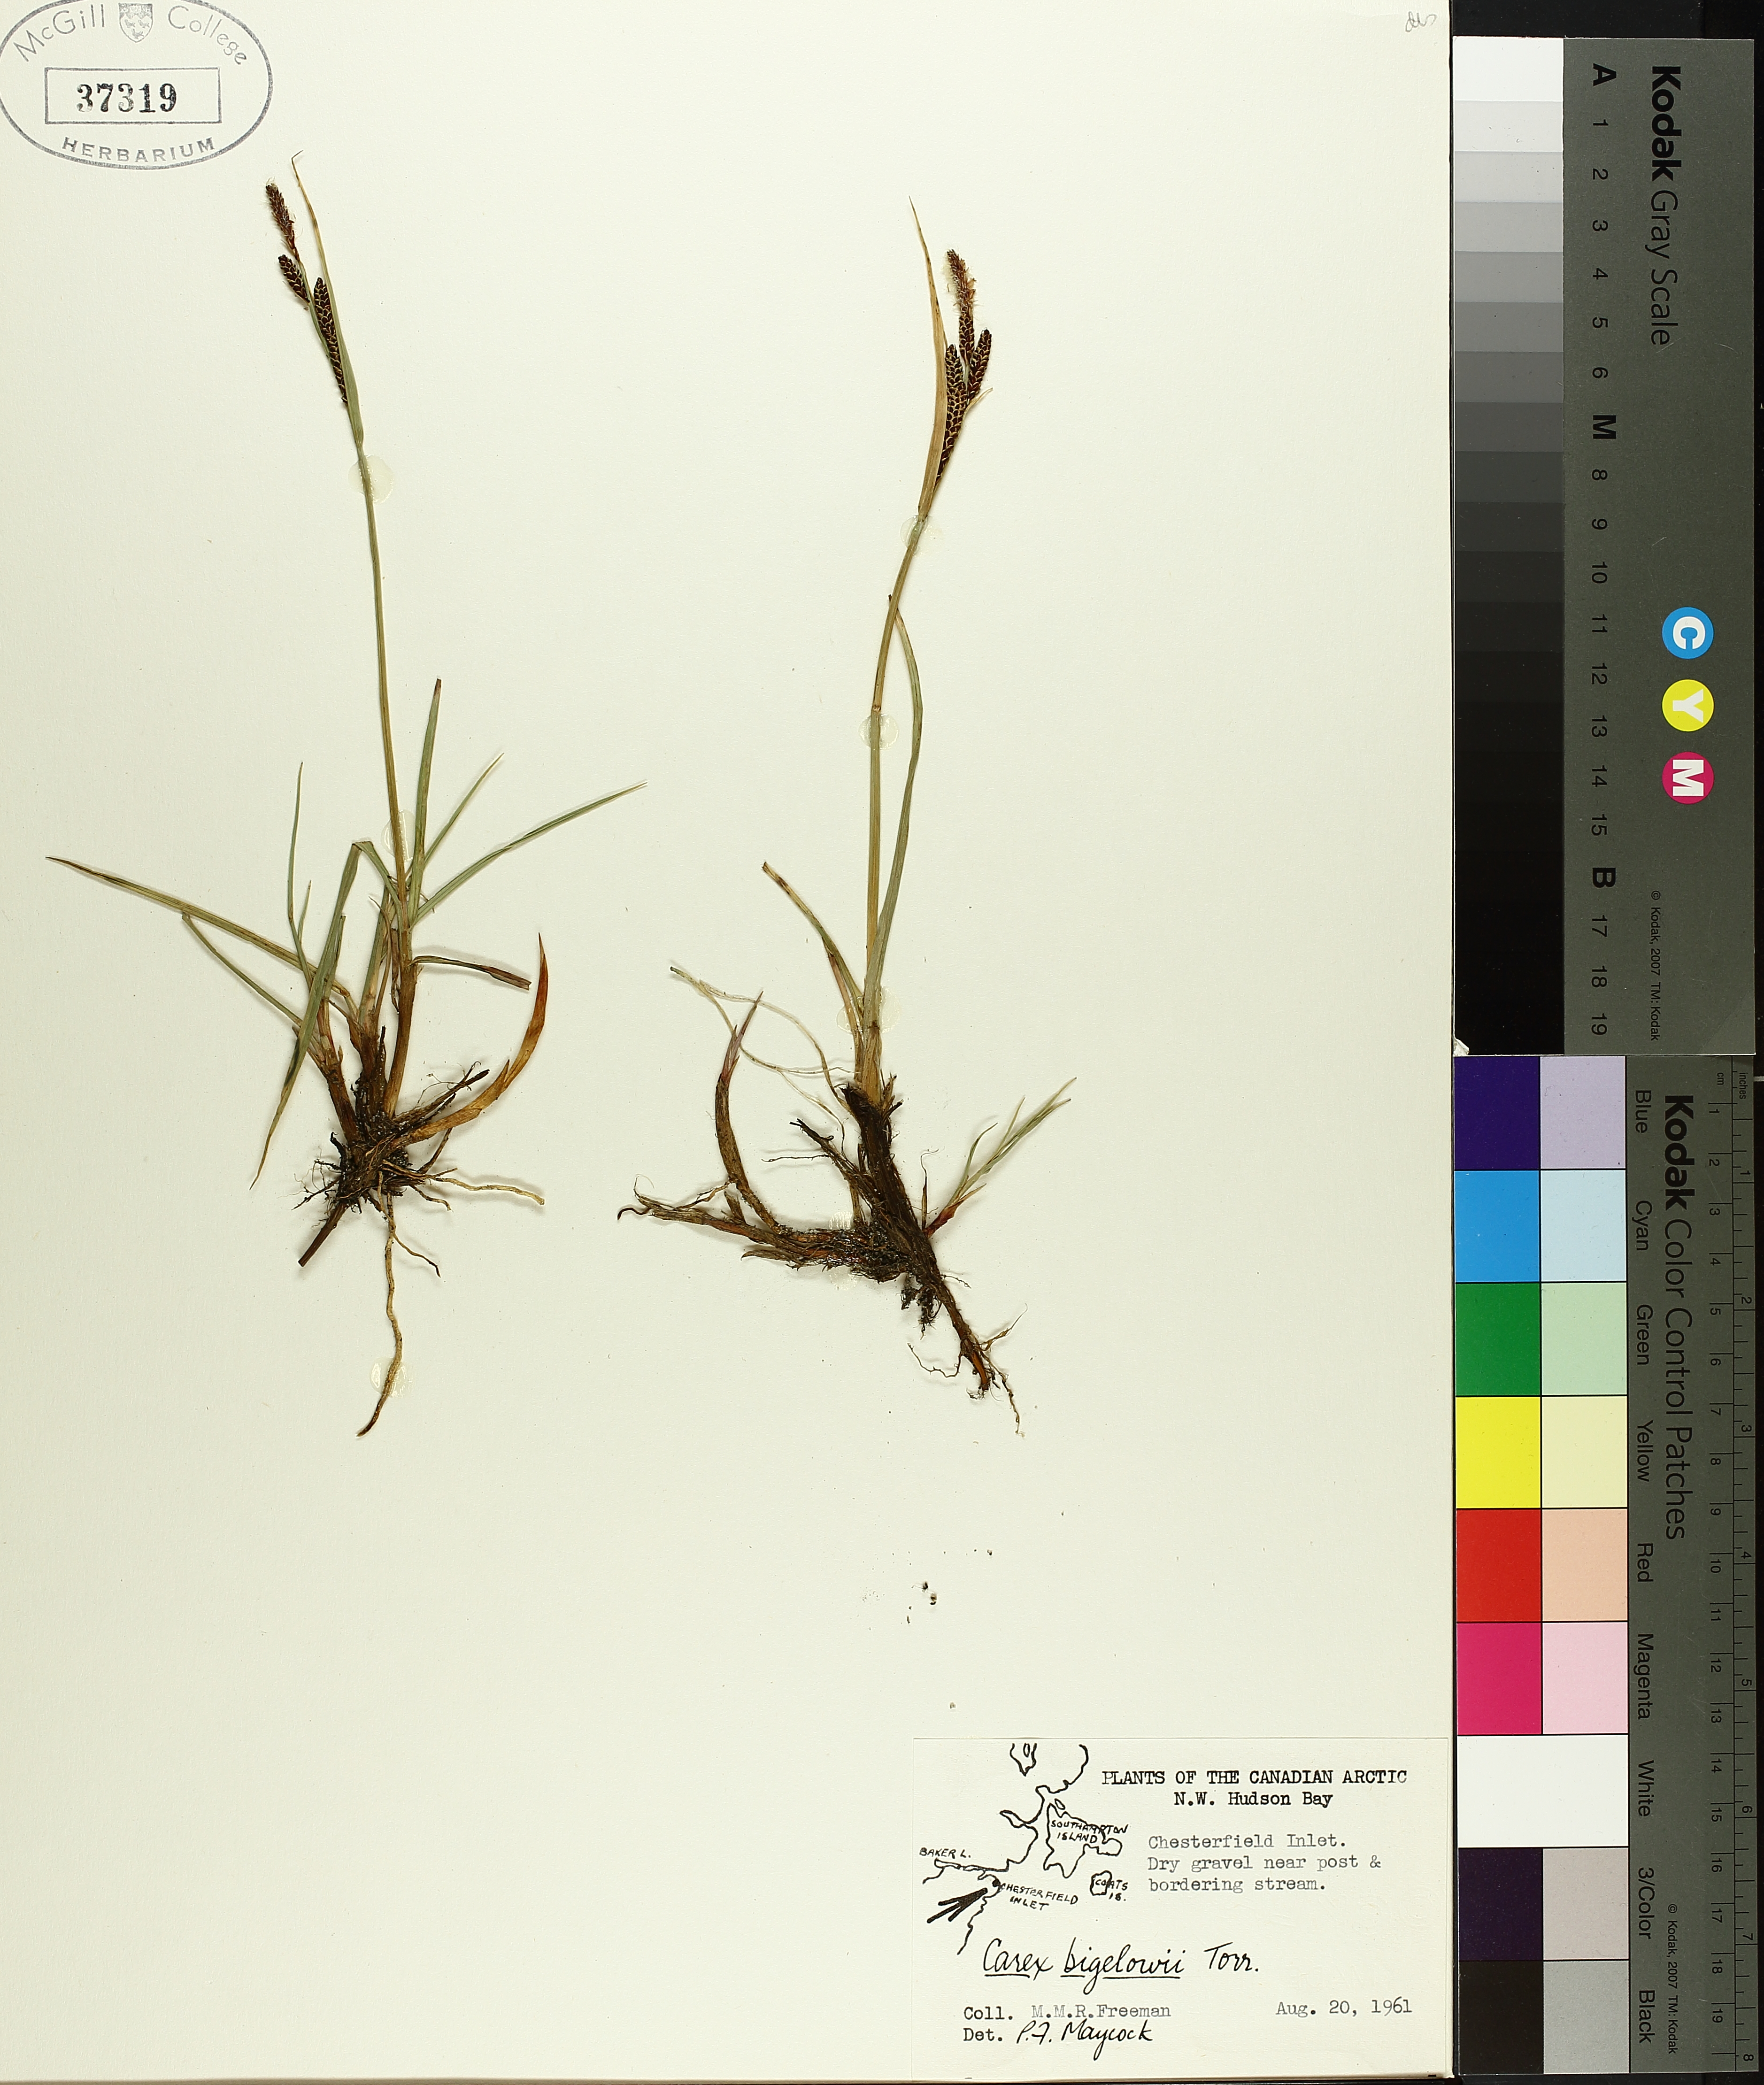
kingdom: Plantae
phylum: Tracheophyta
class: Liliopsida
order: Poales
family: Cyperaceae
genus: Carex
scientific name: Carex bigelowii
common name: Stiff sedge
